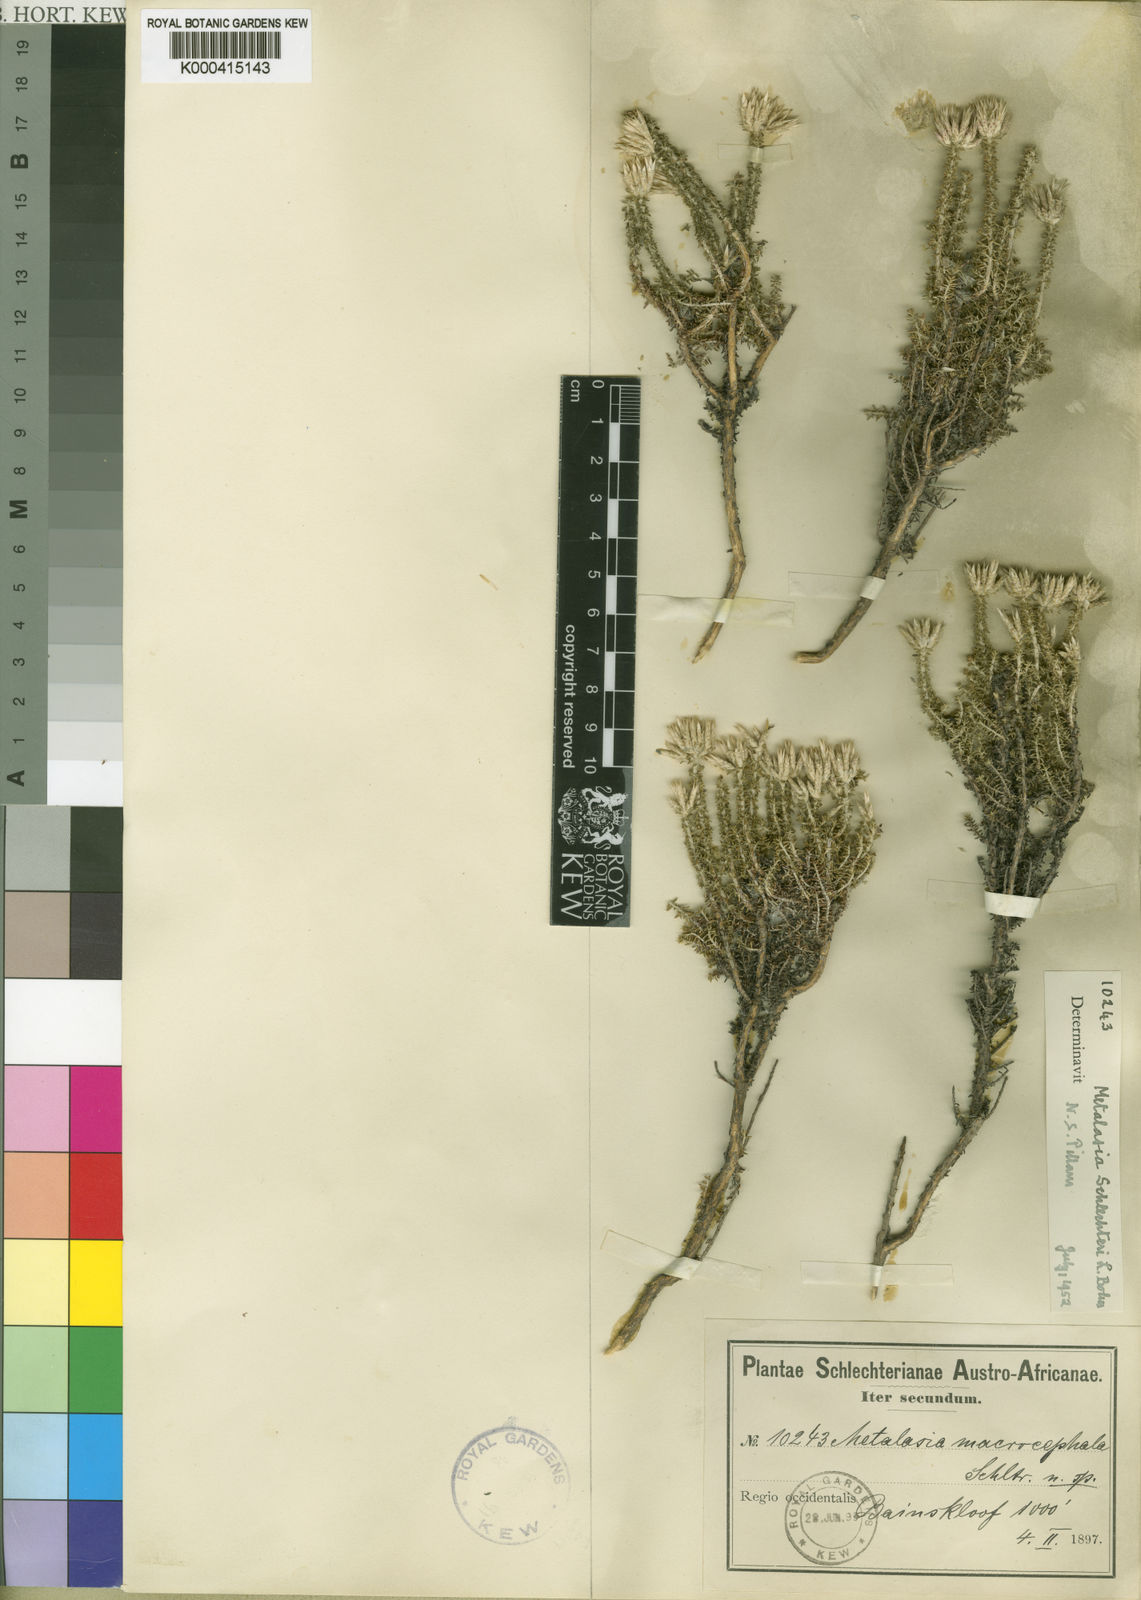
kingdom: Plantae
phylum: Tracheophyta
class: Magnoliopsida
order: Asterales
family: Asteraceae
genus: Planea
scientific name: Planea schlechteri
